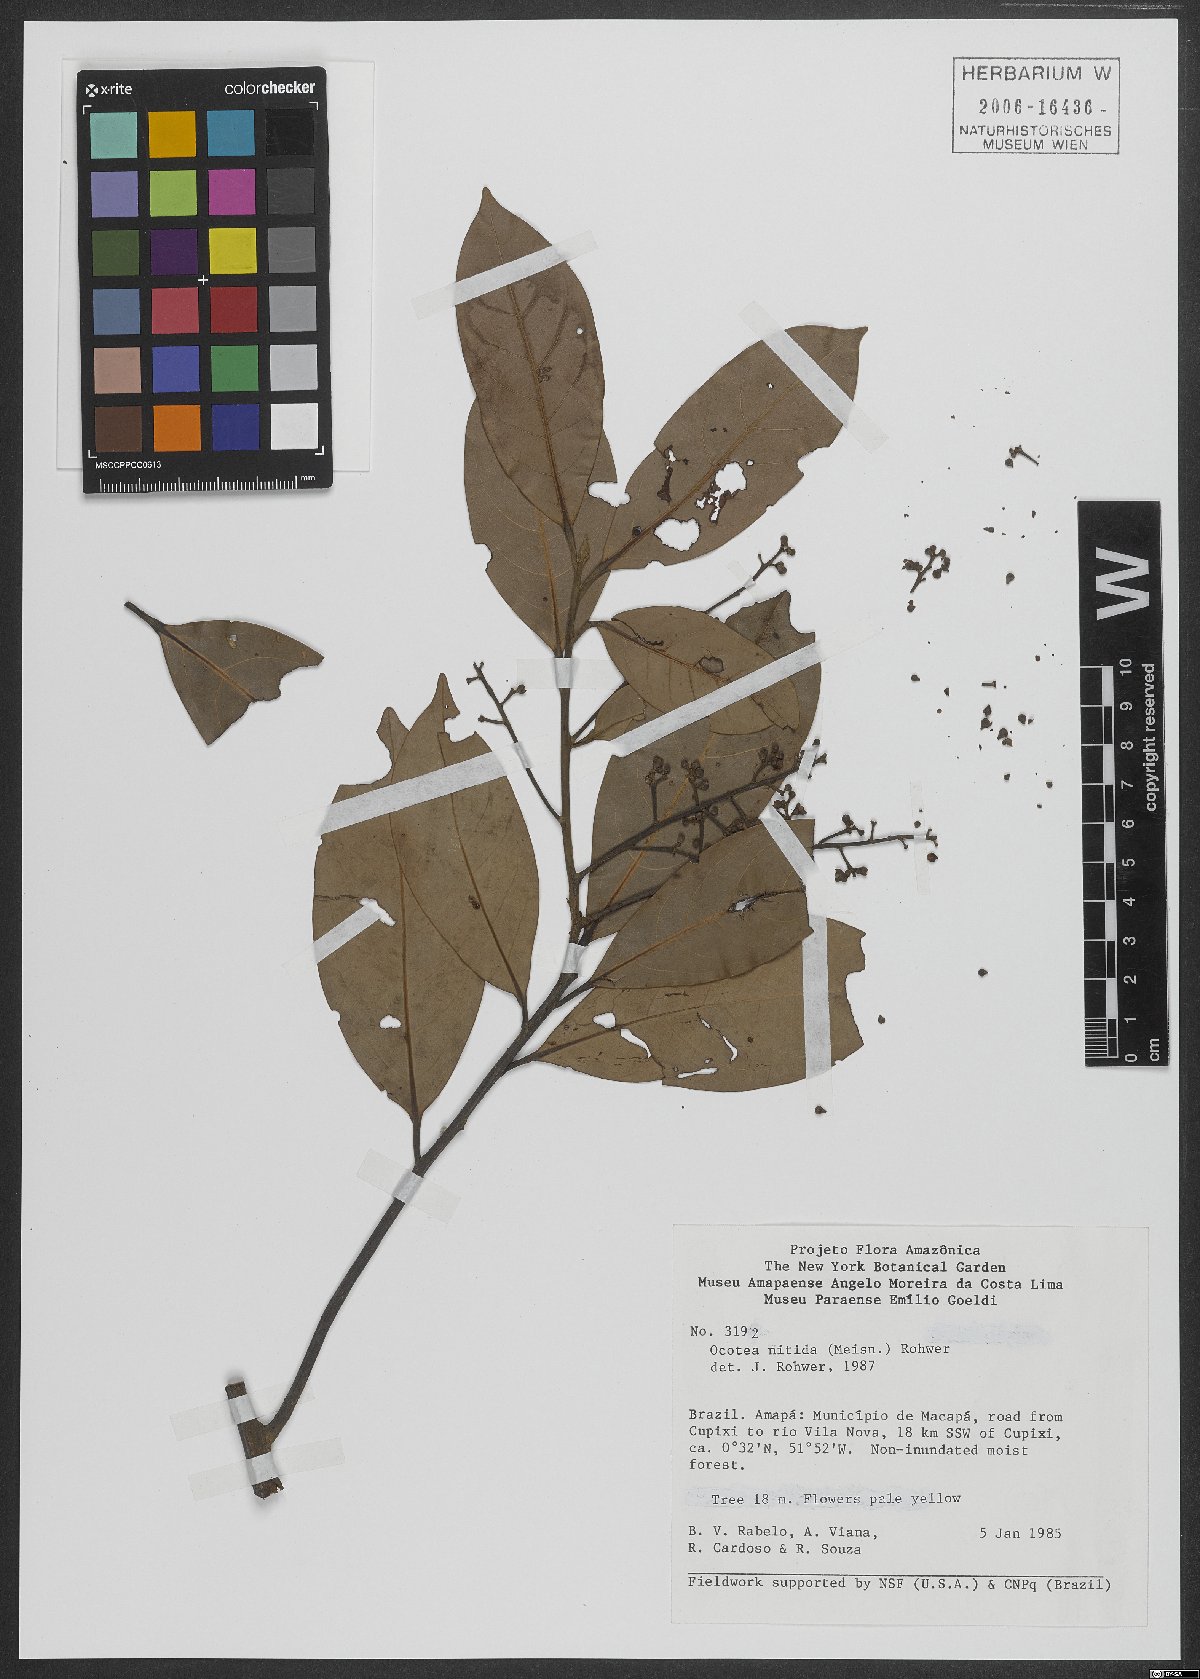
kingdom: Plantae
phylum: Tracheophyta
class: Magnoliopsida
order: Laurales
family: Lauraceae
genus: Ocotea
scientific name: Ocotea nitida
